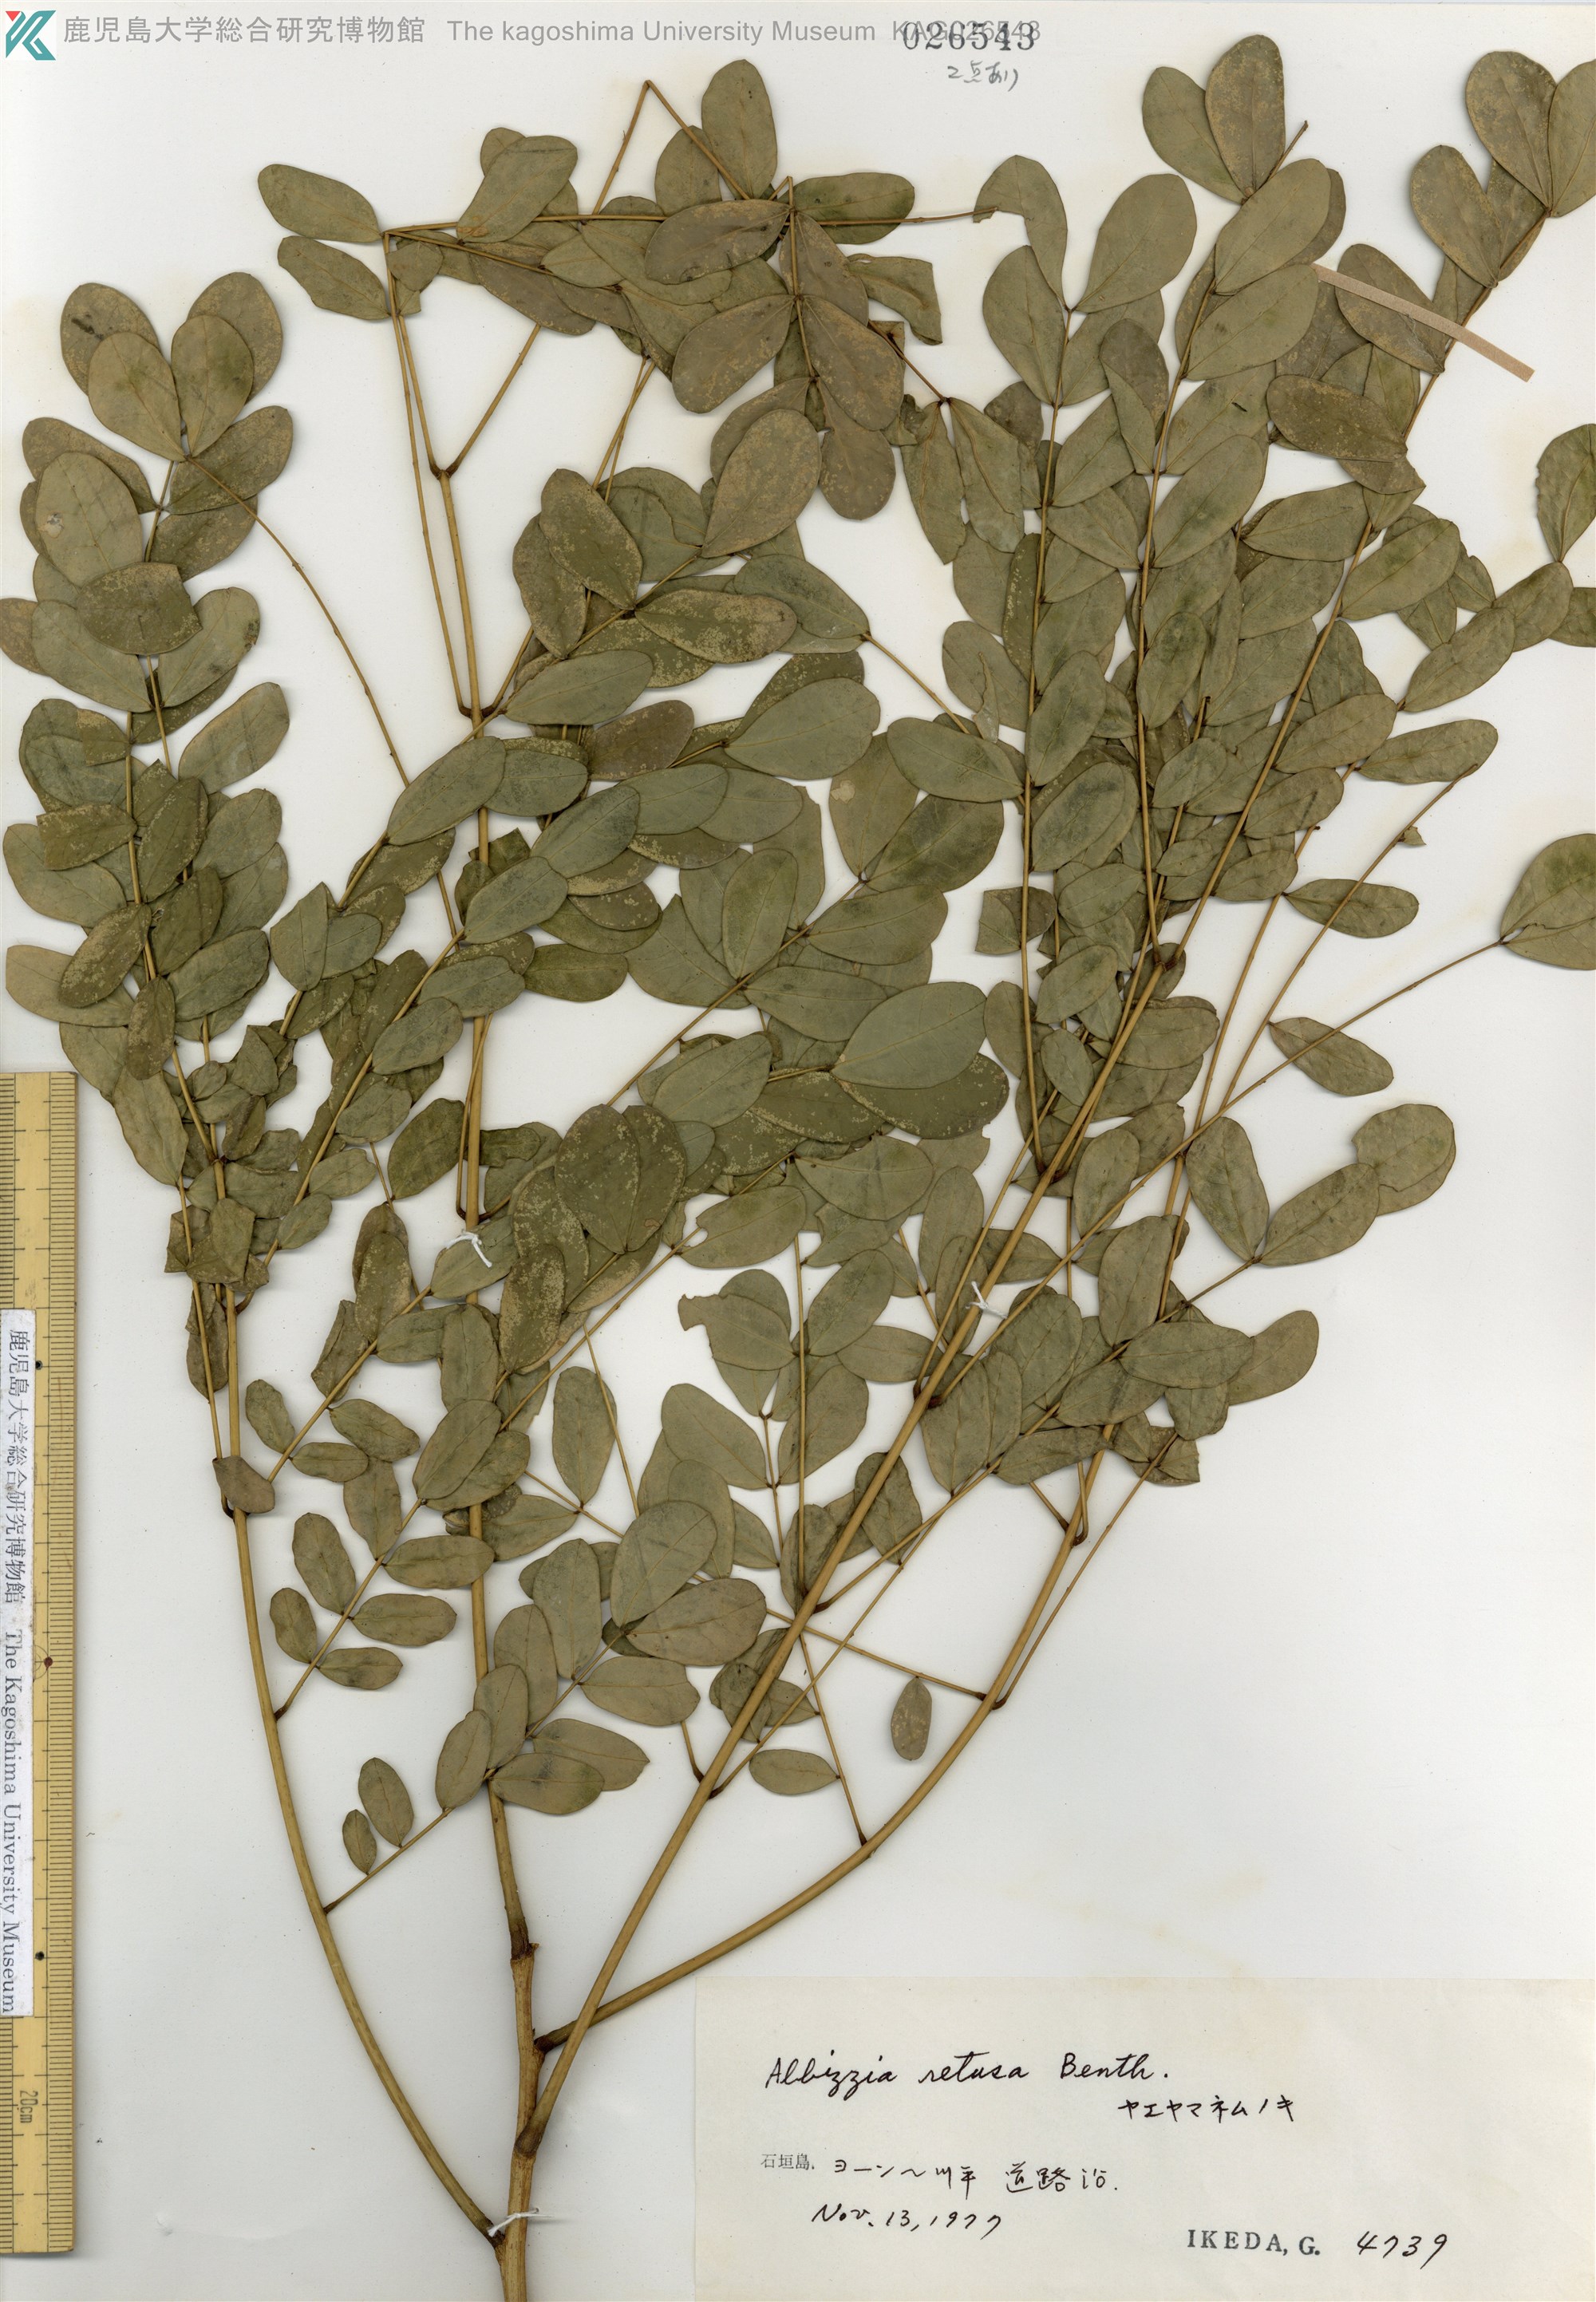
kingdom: Plantae
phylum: Tracheophyta
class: Magnoliopsida
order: Fabales
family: Fabaceae
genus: Albizia
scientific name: Albizia retusa
